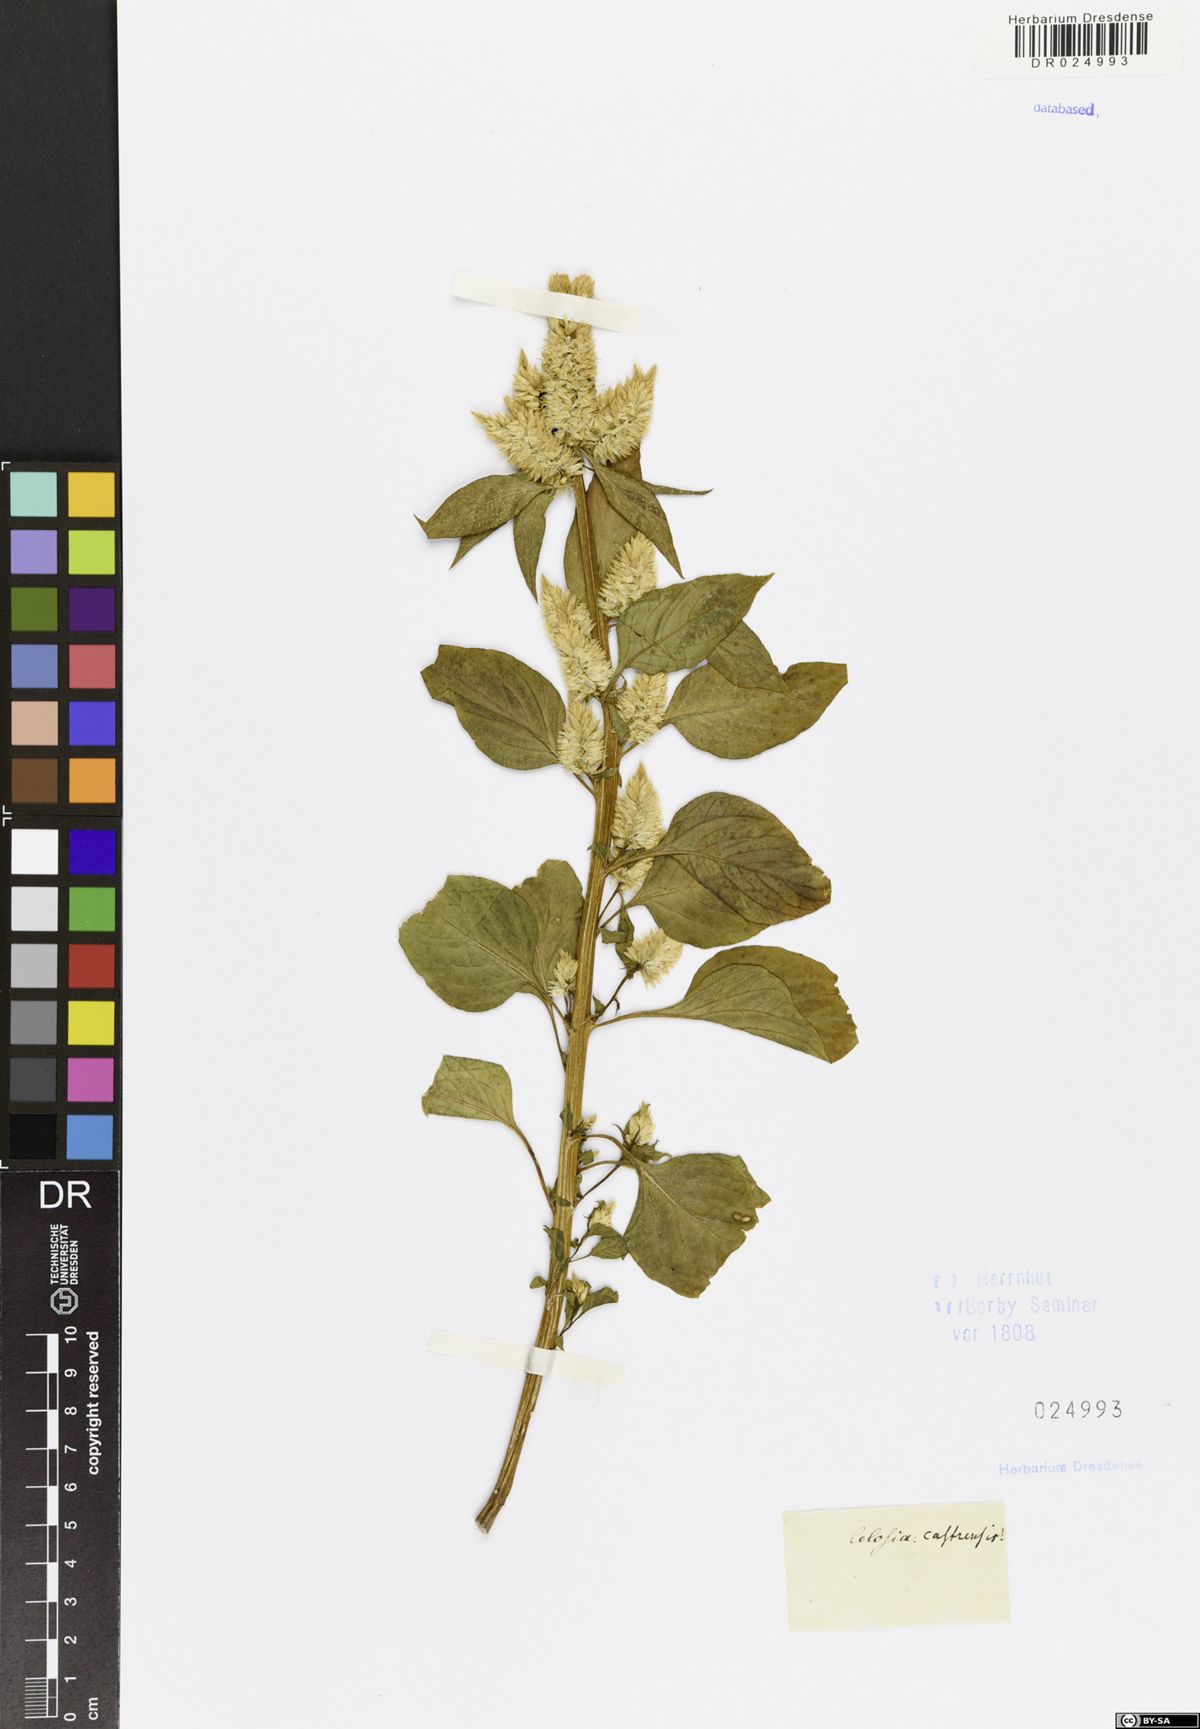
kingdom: Plantae
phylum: Tracheophyta
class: Magnoliopsida
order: Caryophyllales
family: Amaranthaceae
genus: Celosia
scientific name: Celosia argentea
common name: Feather cockscomb
